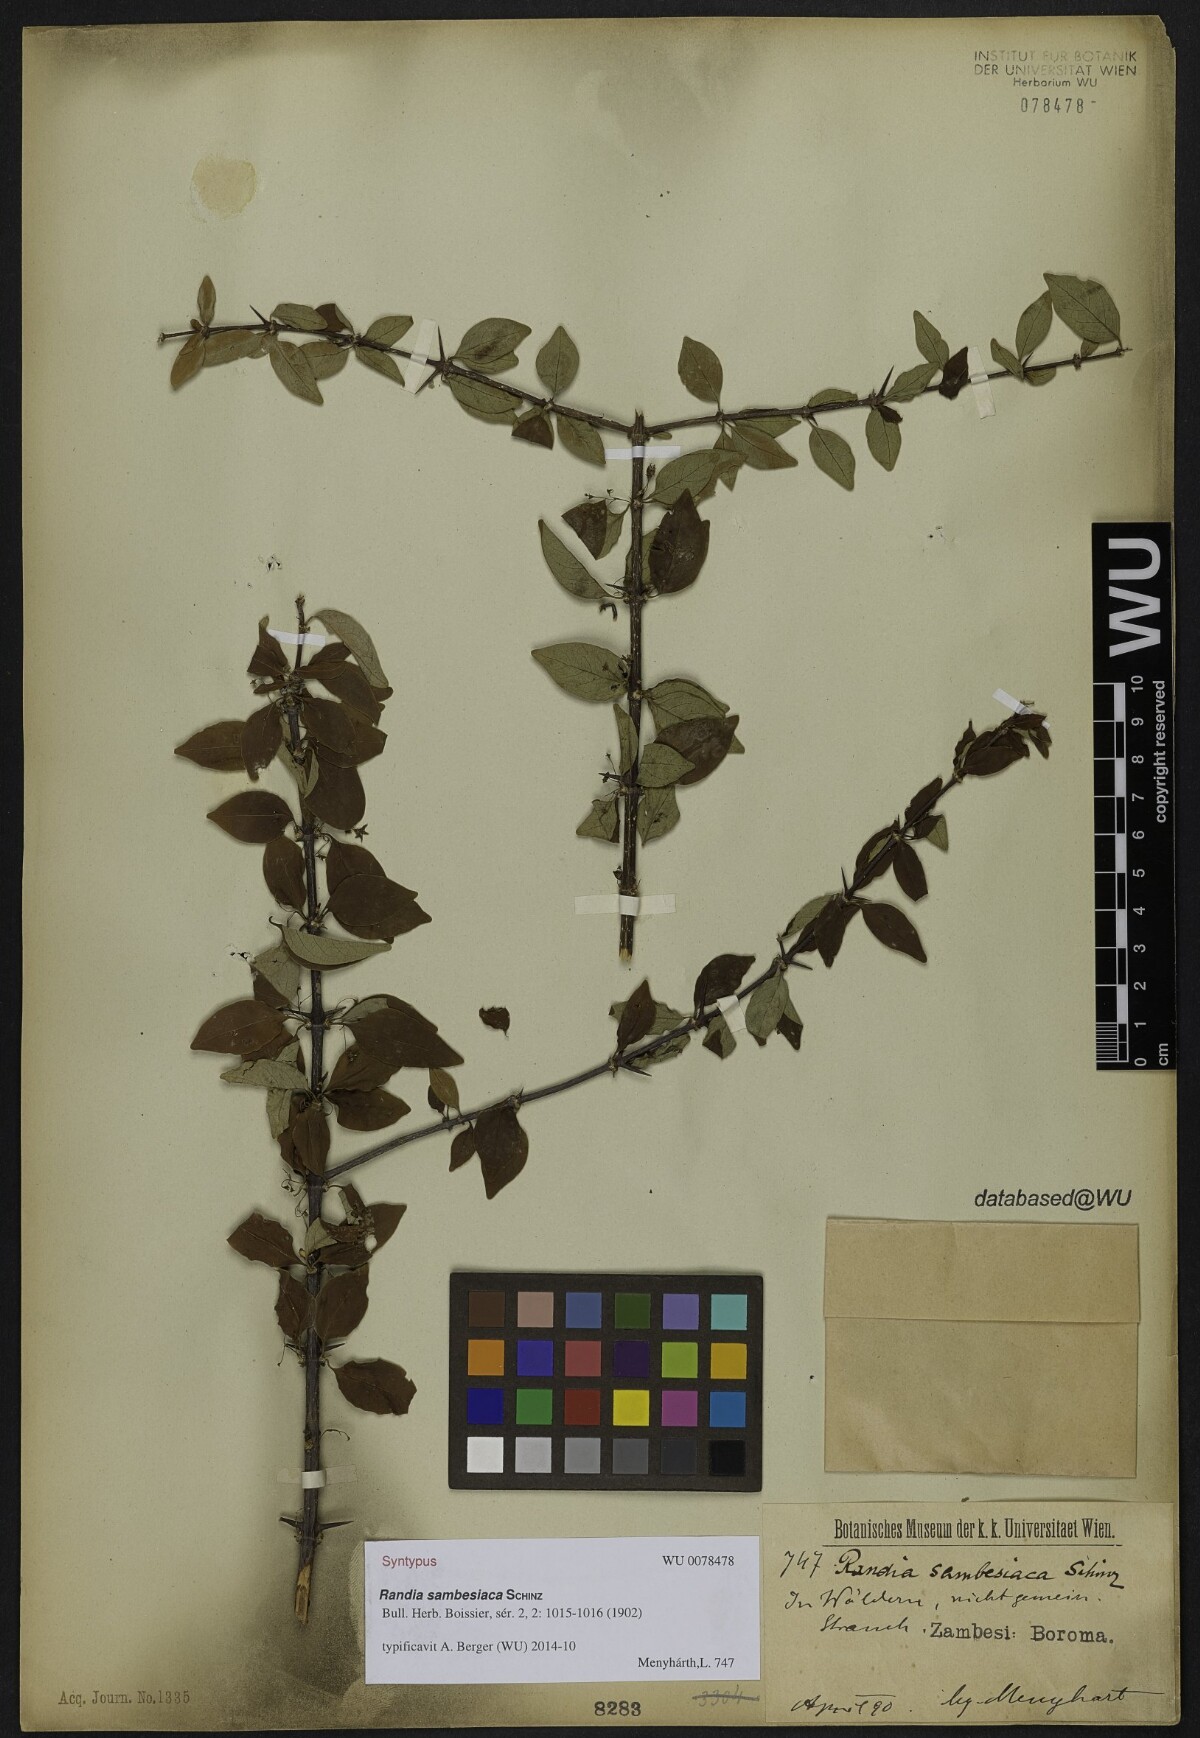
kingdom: Plantae
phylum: Tracheophyta
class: Magnoliopsida
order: Gentianales
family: Rubiaceae
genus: Randia
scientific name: Randia sambesiaca
